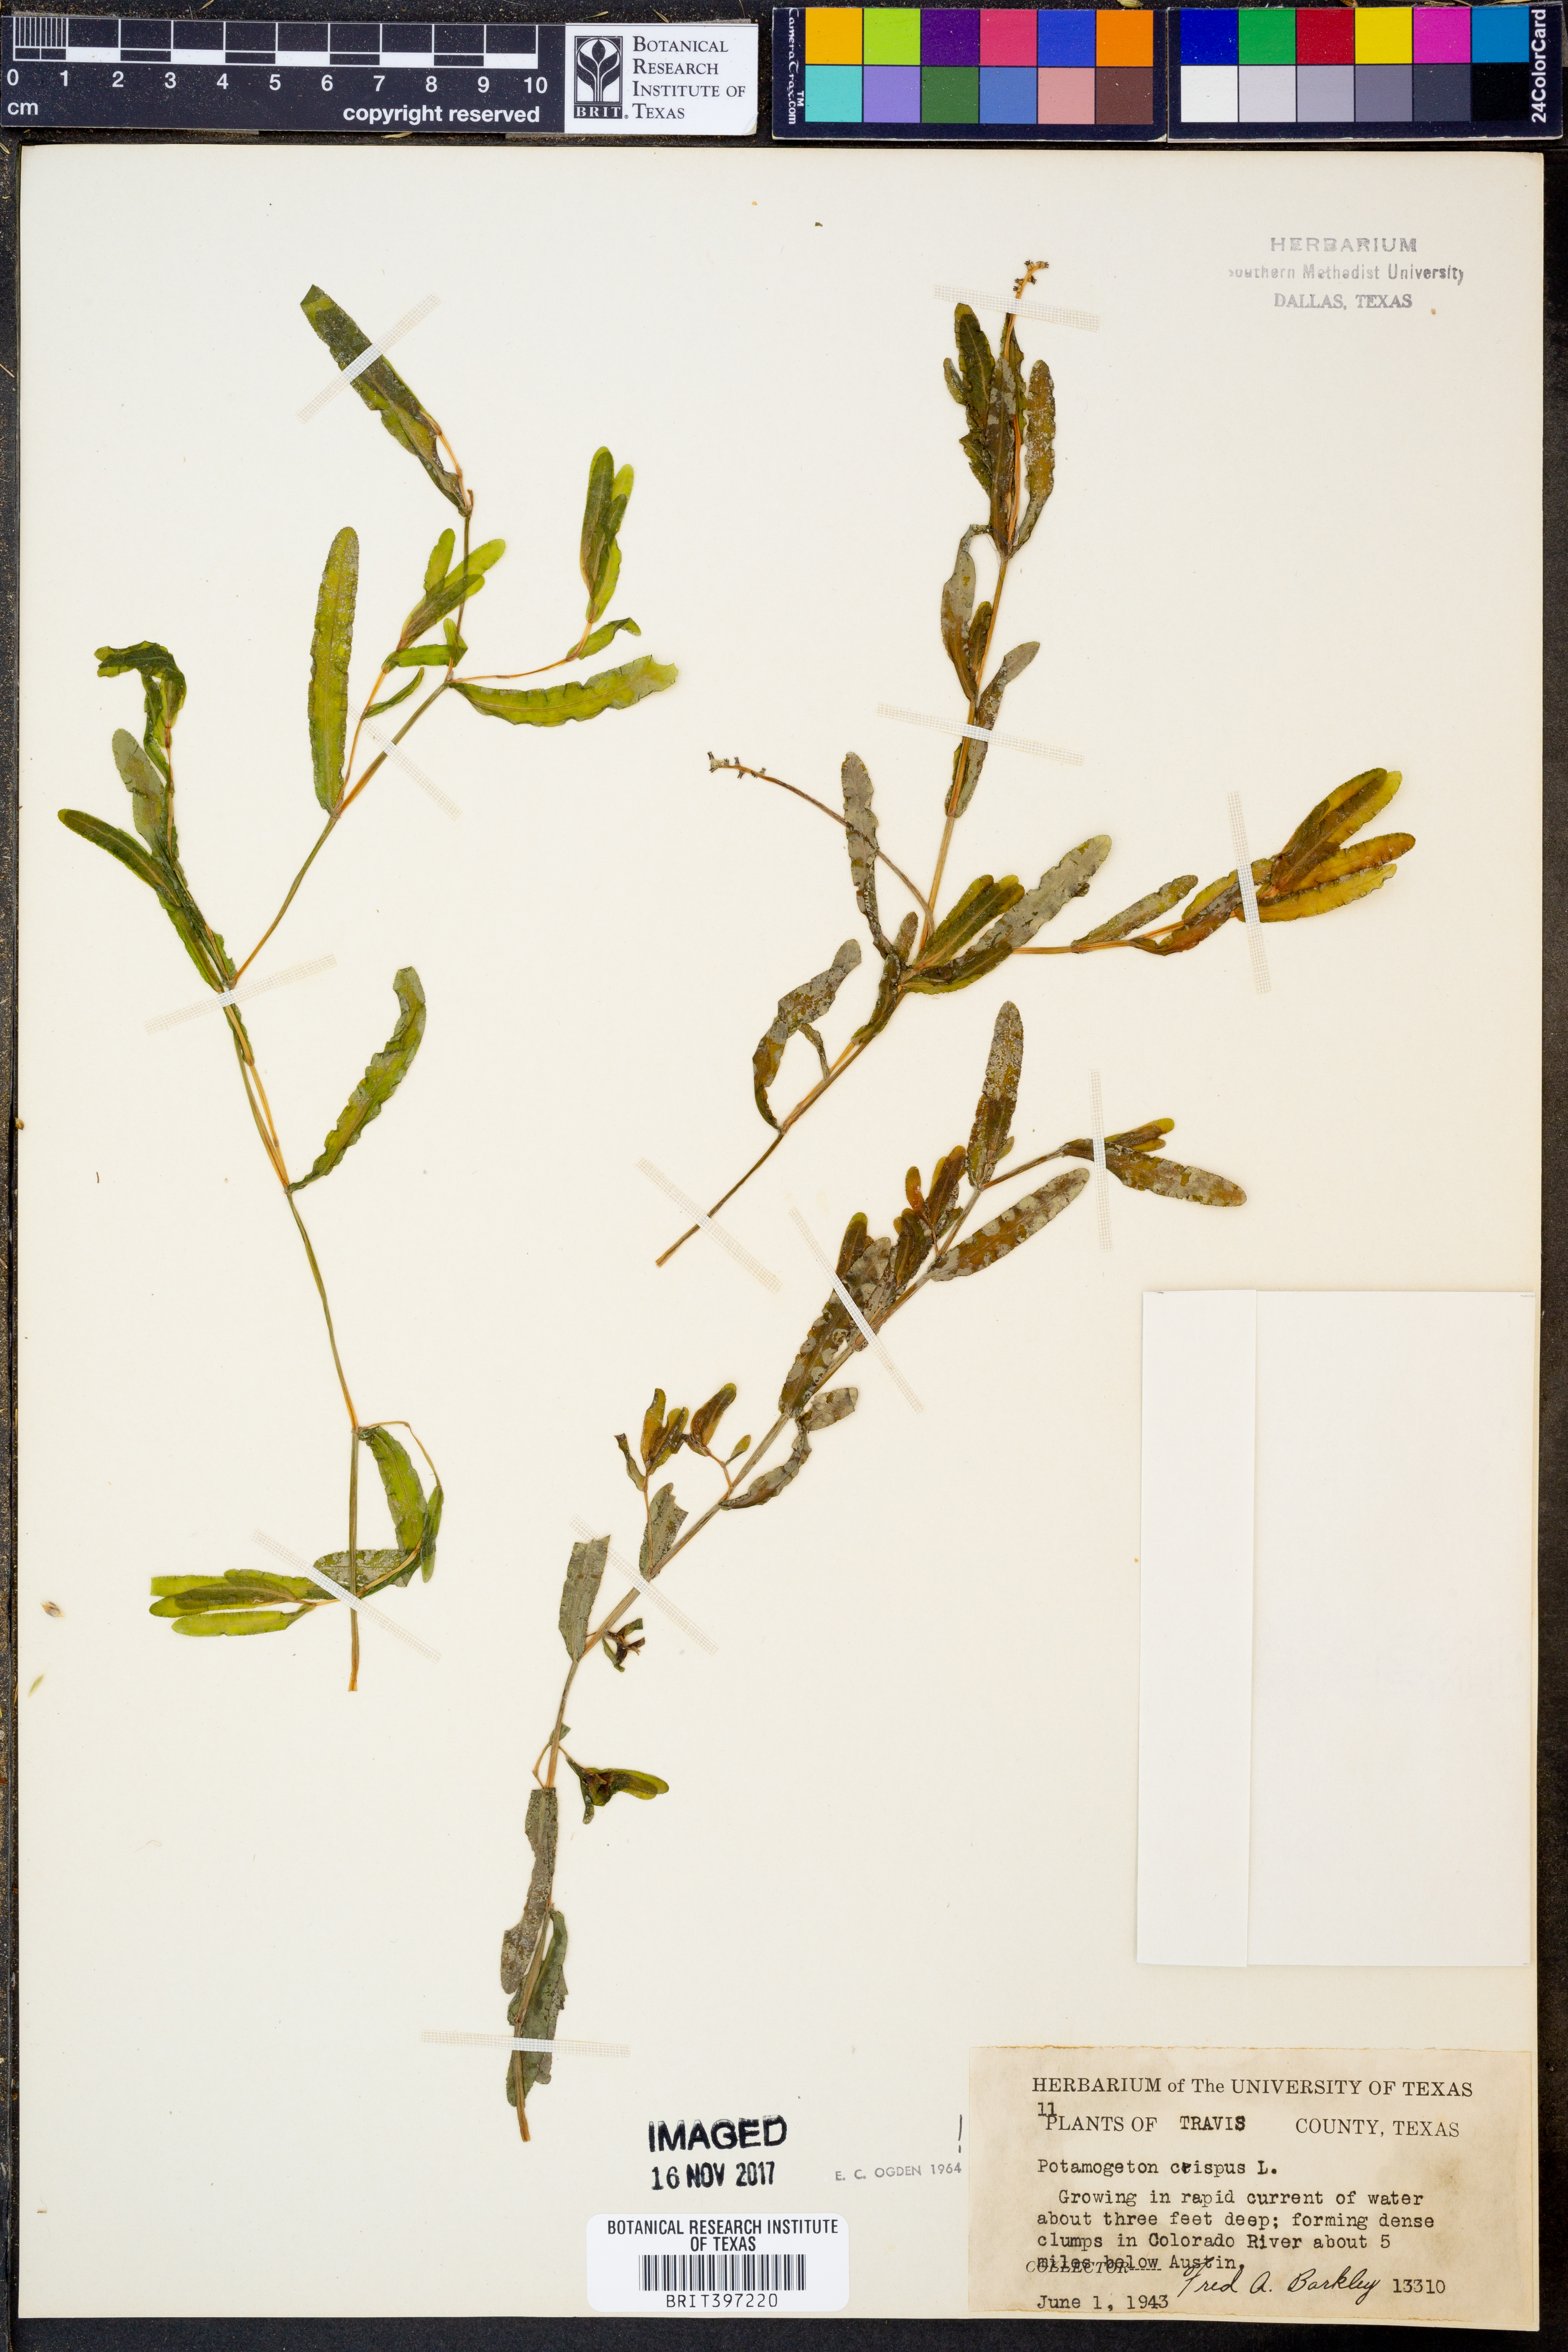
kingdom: Plantae
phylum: Tracheophyta
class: Liliopsida
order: Alismatales
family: Potamogetonaceae
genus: Potamogeton
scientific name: Potamogeton crispus
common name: Curled pondweed
